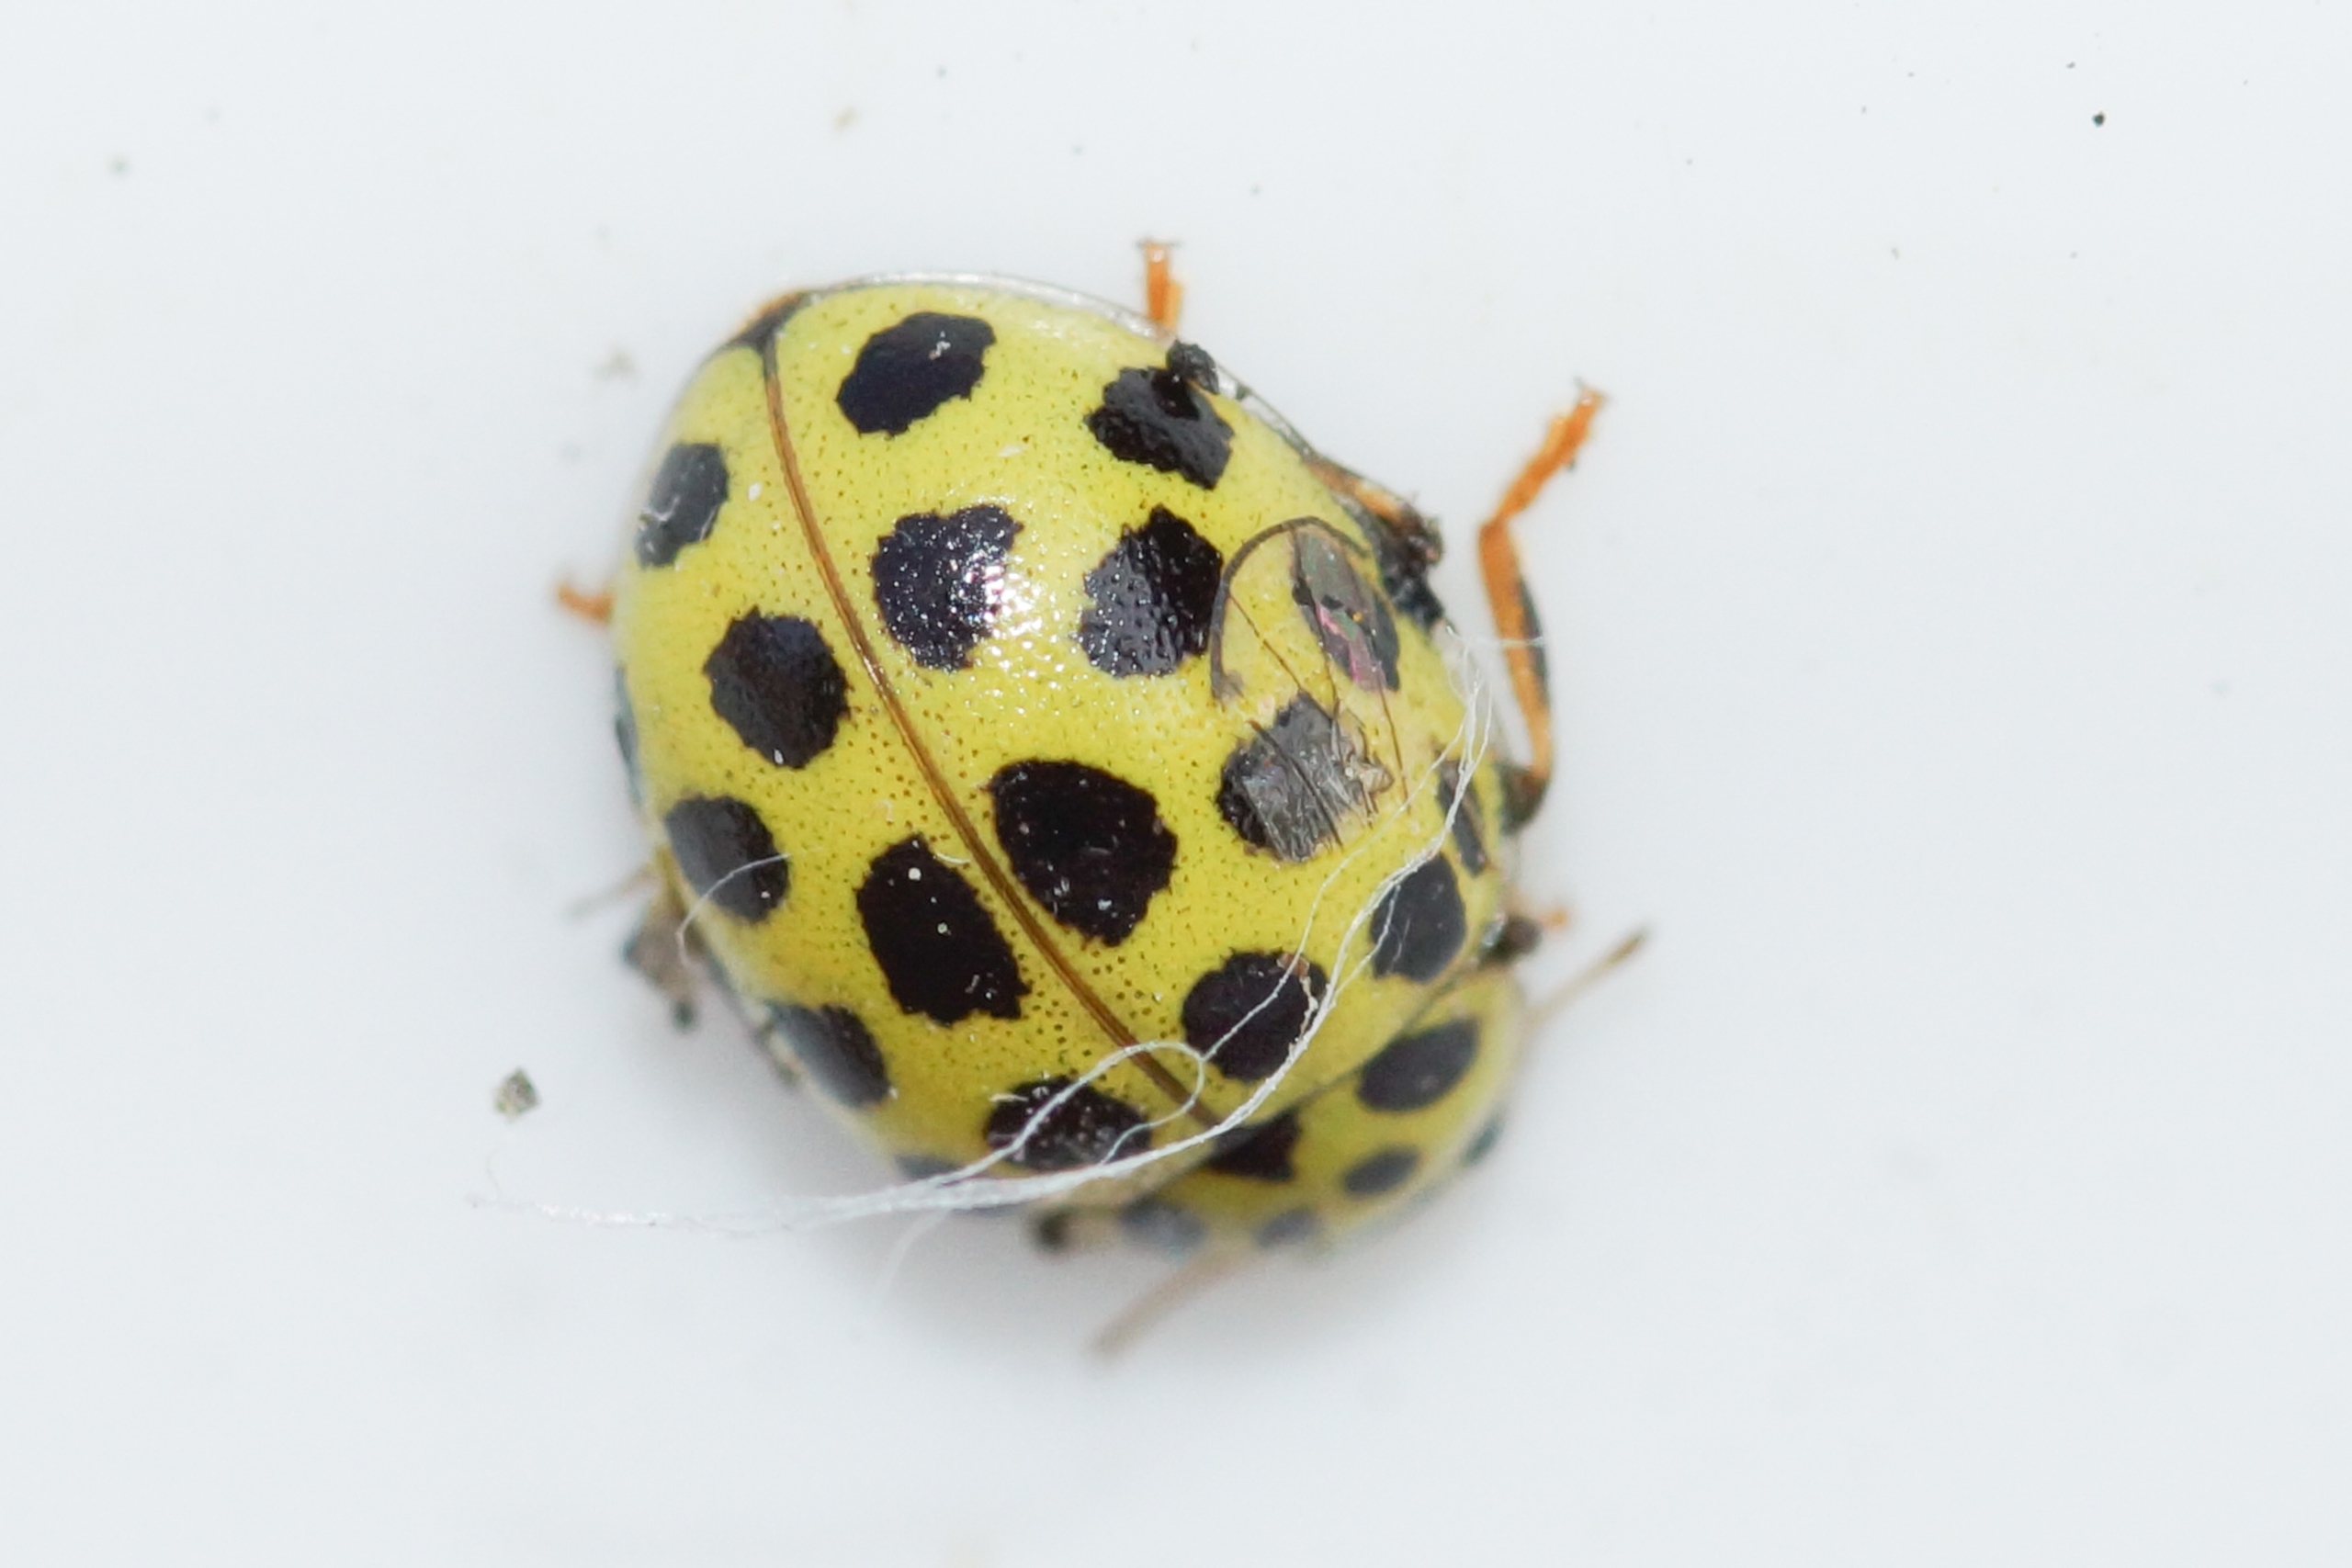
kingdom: Animalia
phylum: Arthropoda
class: Insecta
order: Coleoptera
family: Coccinellidae
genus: Psyllobora
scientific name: Psyllobora vigintiduopunctata
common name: Toogtyveplettet mariehøne
